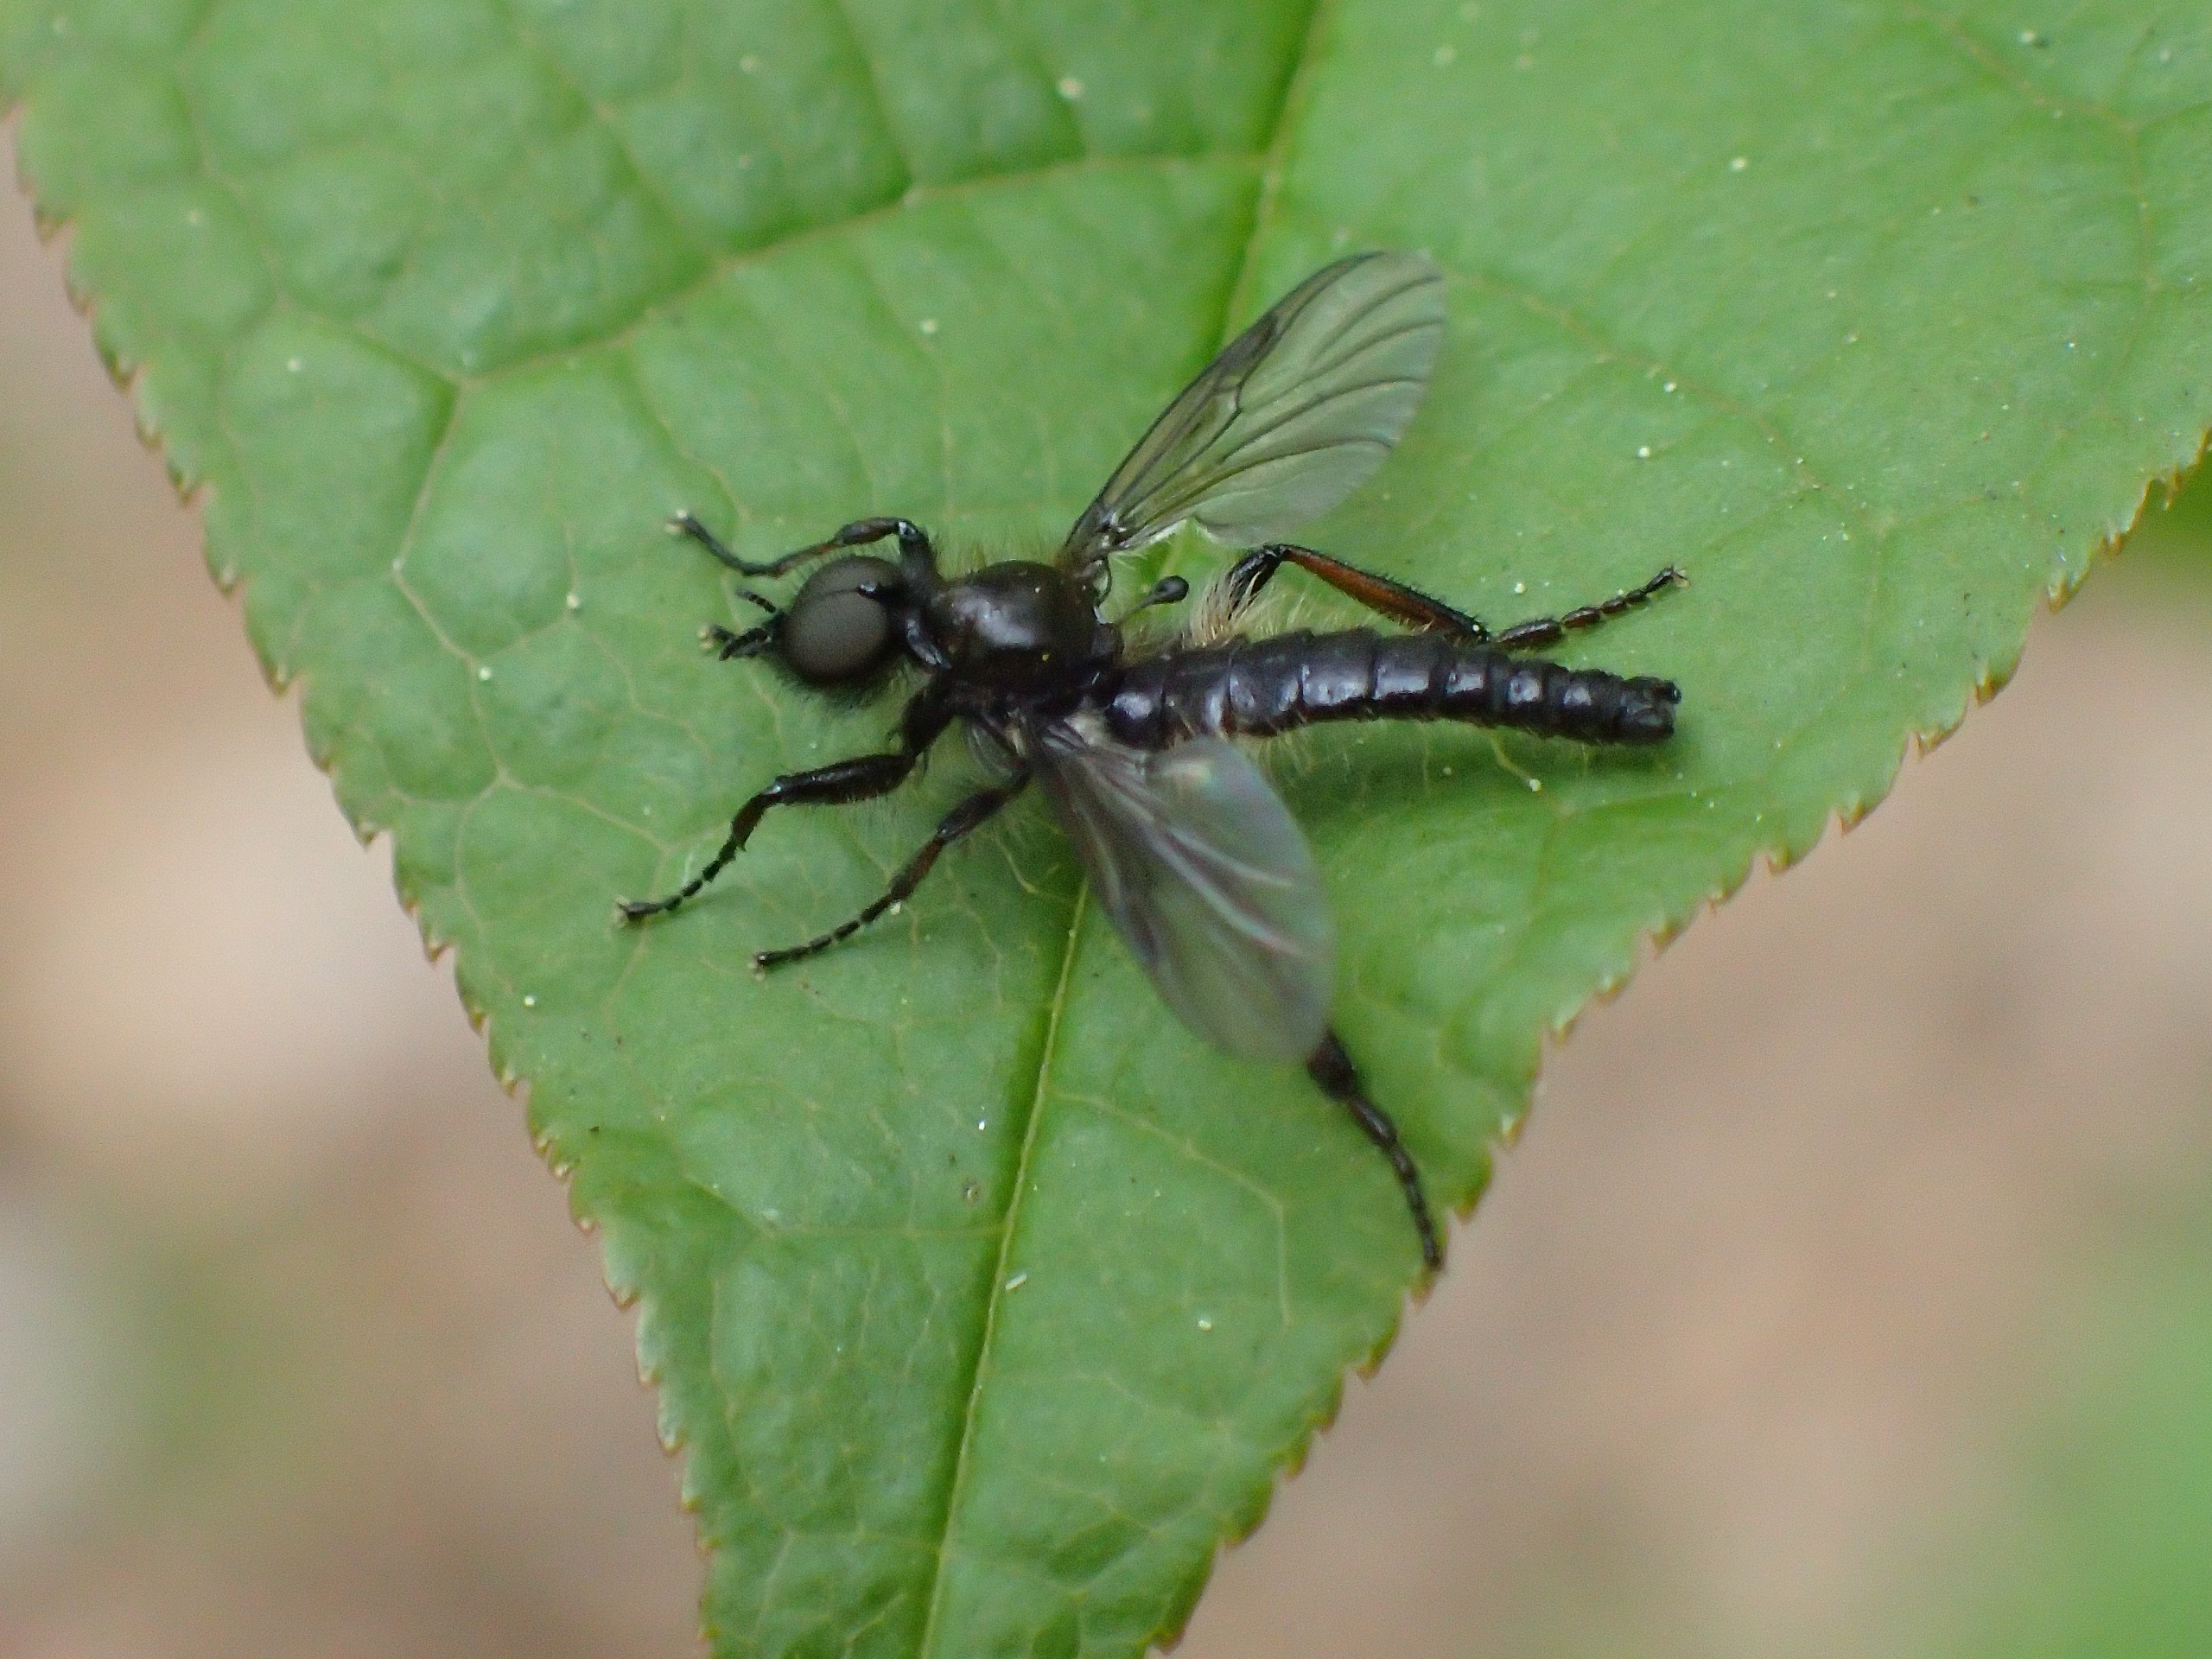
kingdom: Animalia
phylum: Arthropoda
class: Insecta
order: Diptera
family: Bibionidae
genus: Bibio
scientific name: Bibio lanigerus
